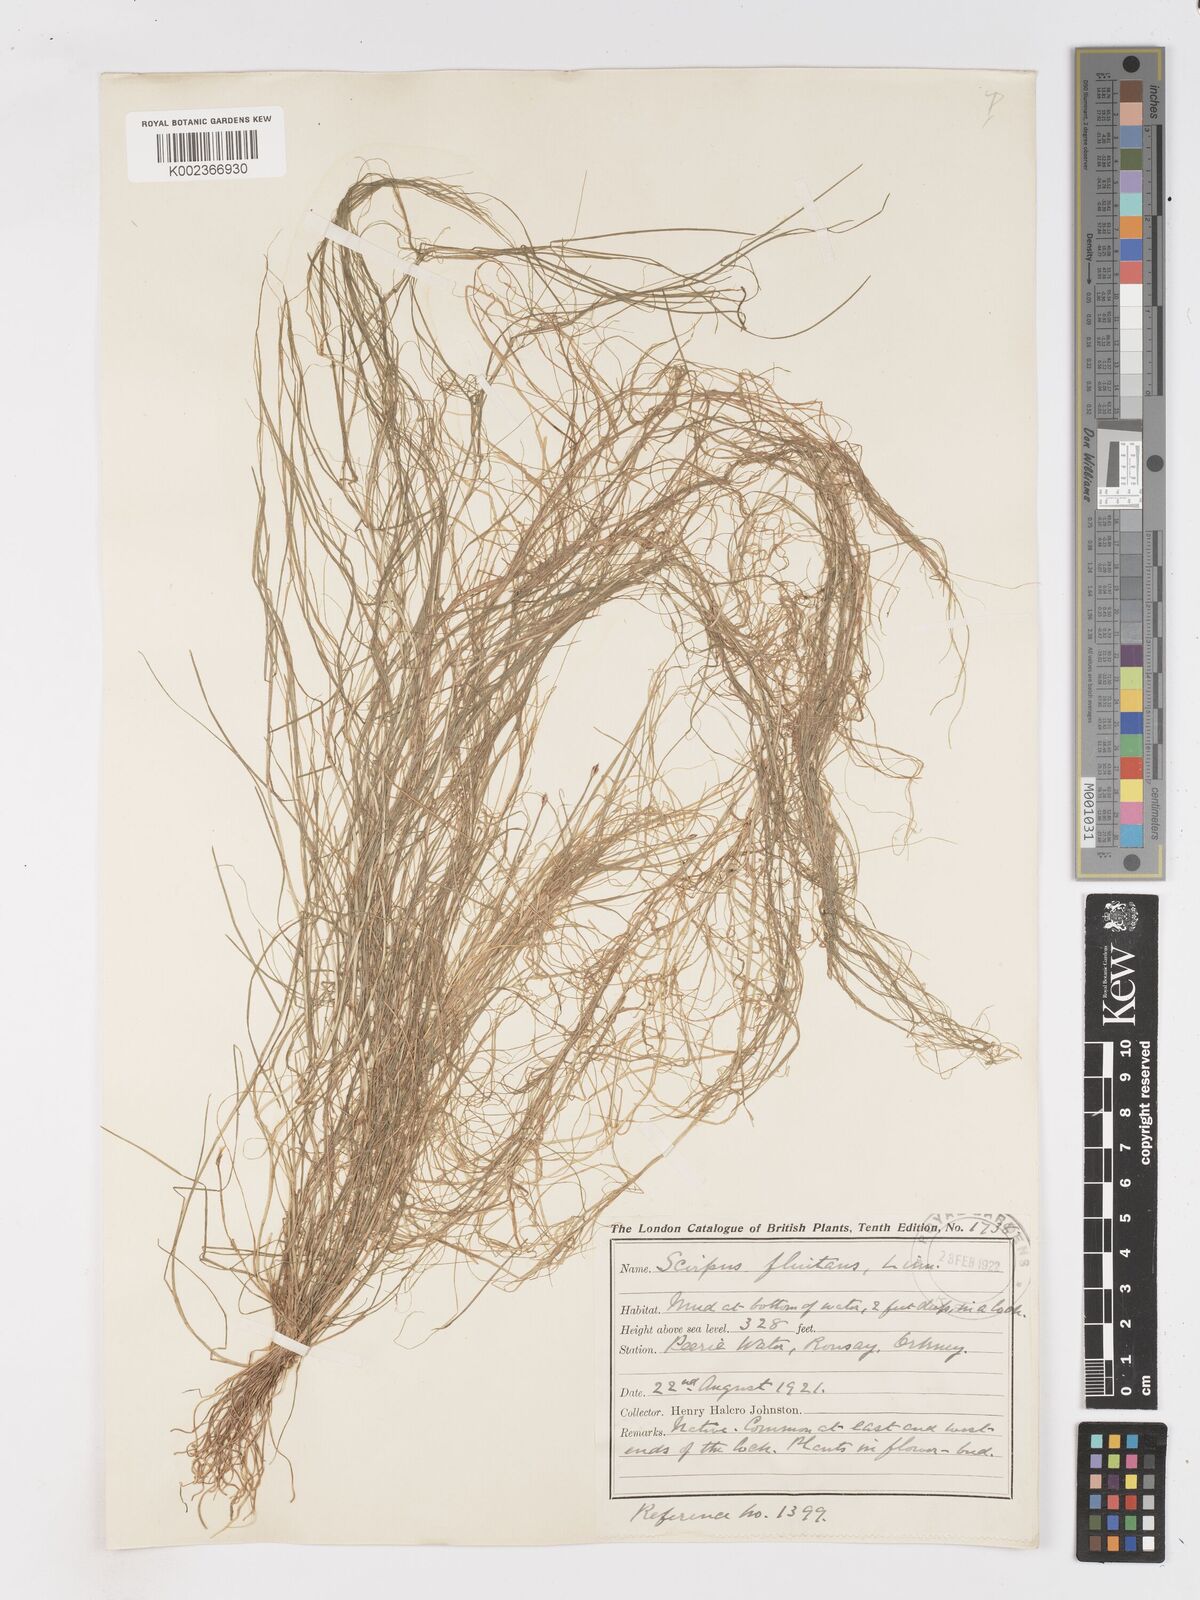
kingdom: Plantae
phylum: Tracheophyta
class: Liliopsida
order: Poales
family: Cyperaceae
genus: Isolepis
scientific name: Isolepis fluitans
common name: Floating club-rush
